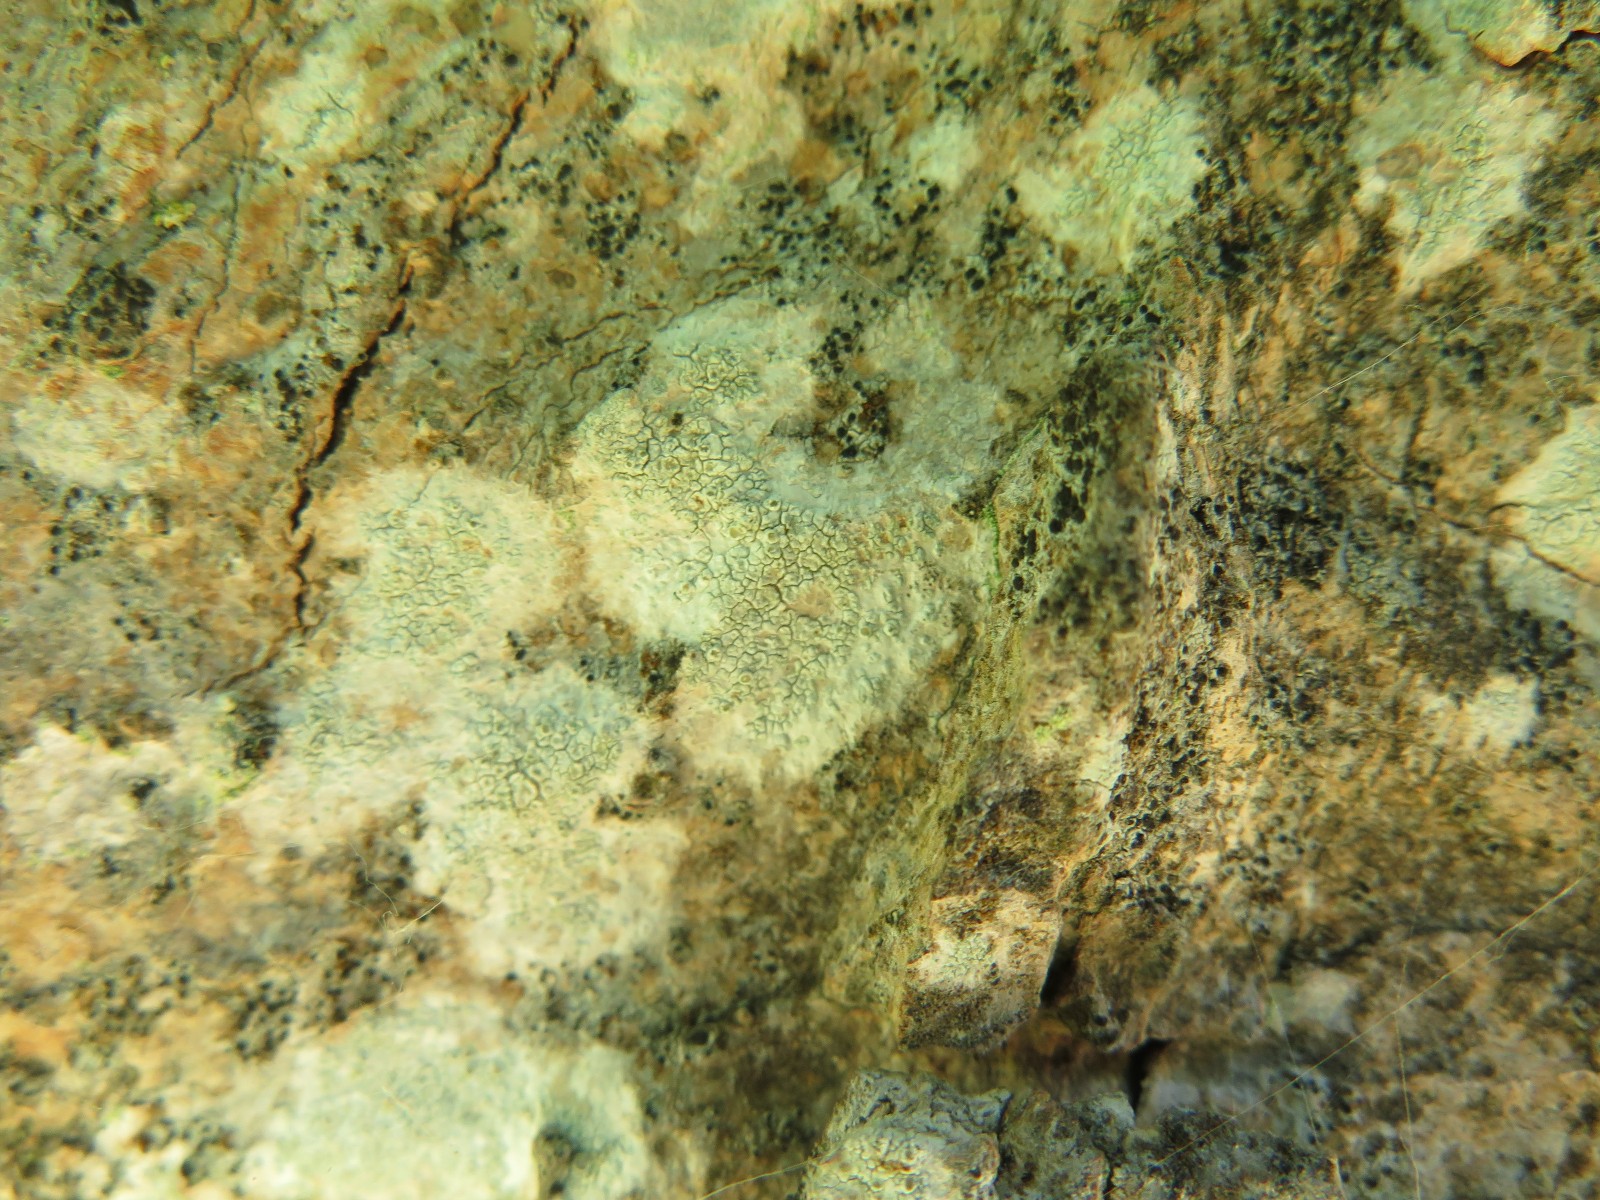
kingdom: Fungi
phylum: Ascomycota
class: Lecanoromycetes
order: Lecanorales
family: Lecanoraceae
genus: Glaucomaria
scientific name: Glaucomaria carpinea
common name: hviddugget kantskivelav
